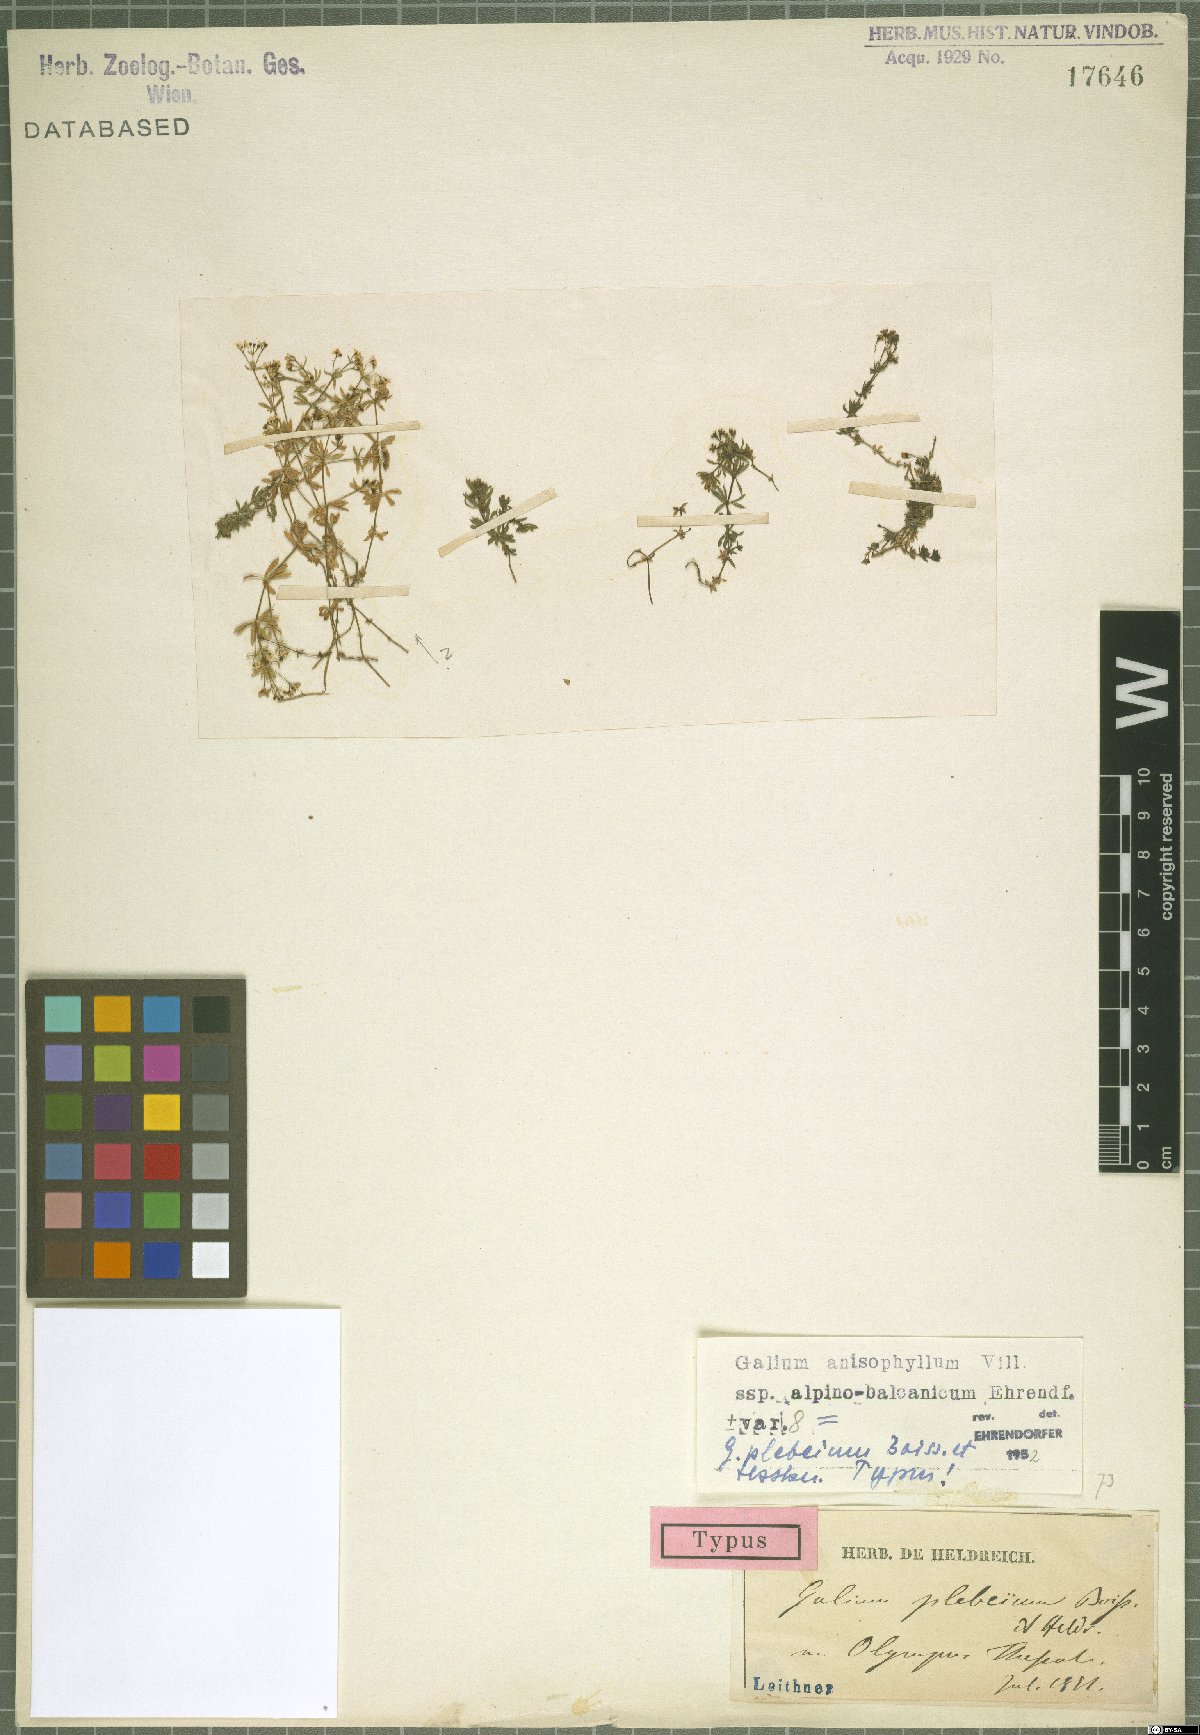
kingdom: Plantae
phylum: Tracheophyta
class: Magnoliopsida
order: Gentianales
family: Rubiaceae
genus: Galium
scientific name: Galium anisophyllon
